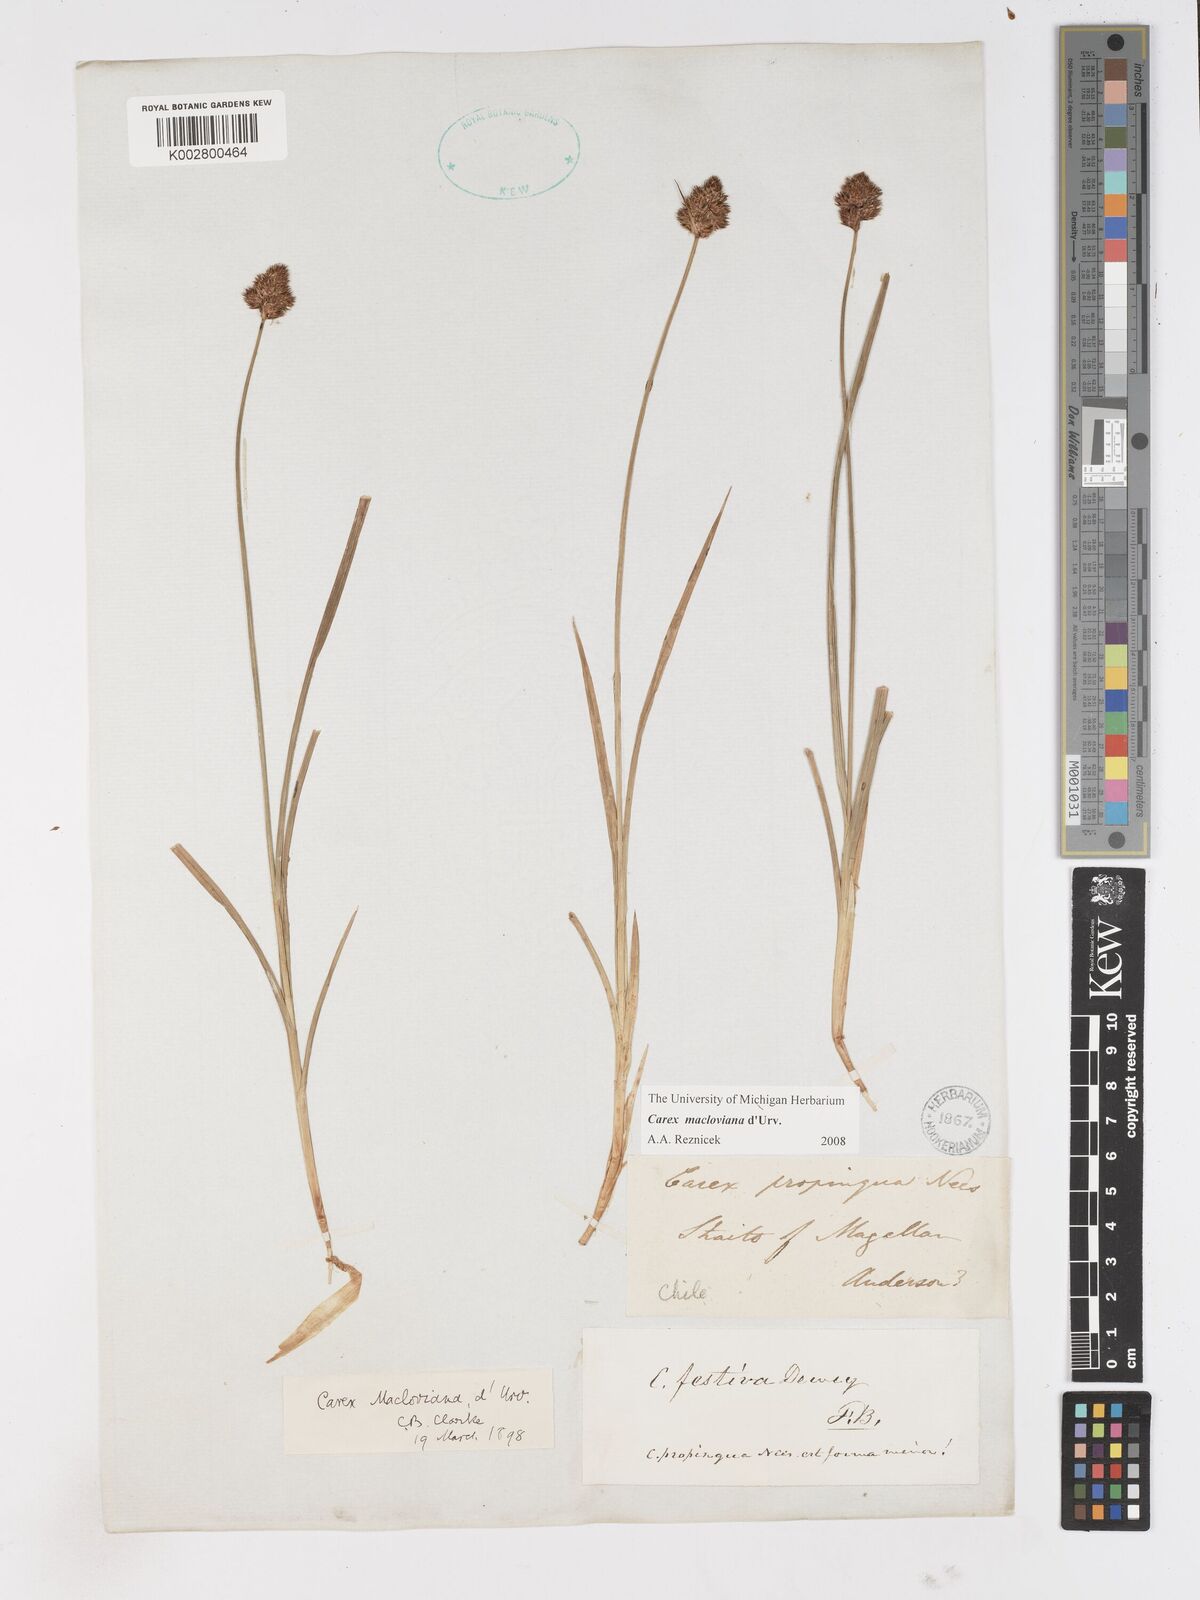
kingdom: Plantae
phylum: Tracheophyta
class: Liliopsida
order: Poales
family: Cyperaceae
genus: Carex
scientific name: Carex macloviana
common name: Falkland island sedge
